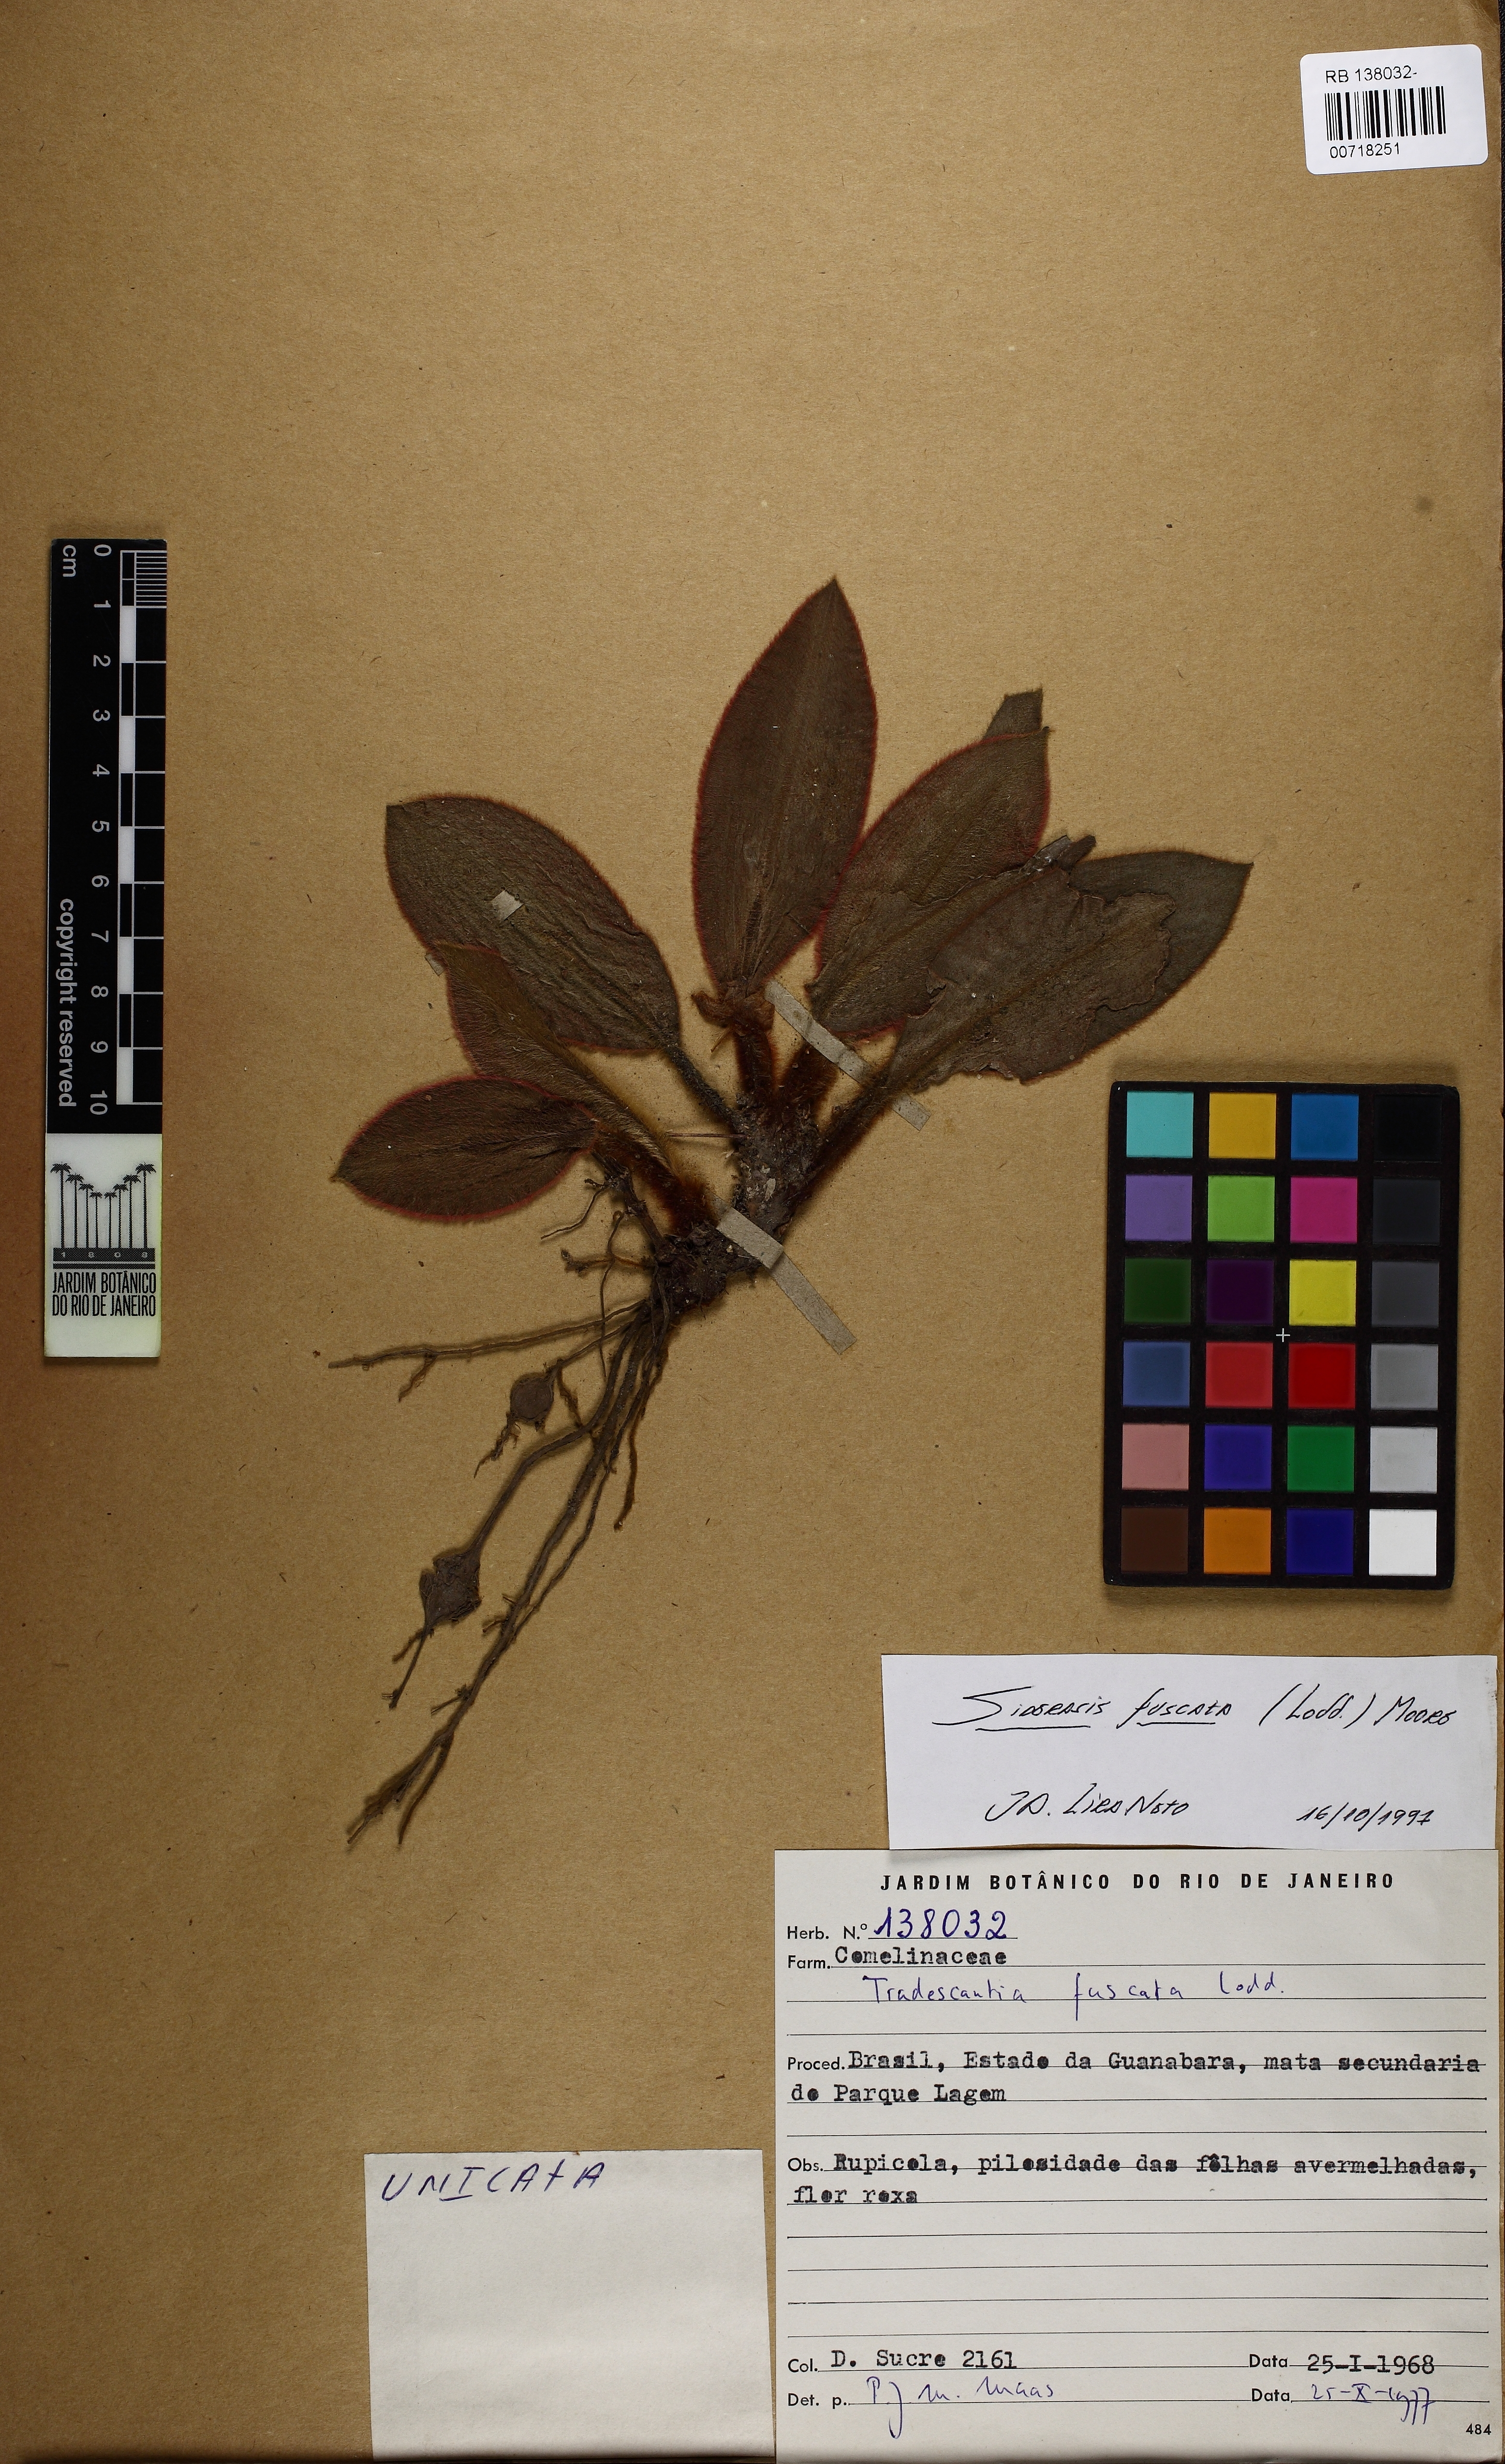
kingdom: Plantae
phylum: Tracheophyta
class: Liliopsida
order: Commelinales
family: Commelinaceae
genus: Siderasis
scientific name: Siderasis fuscata
